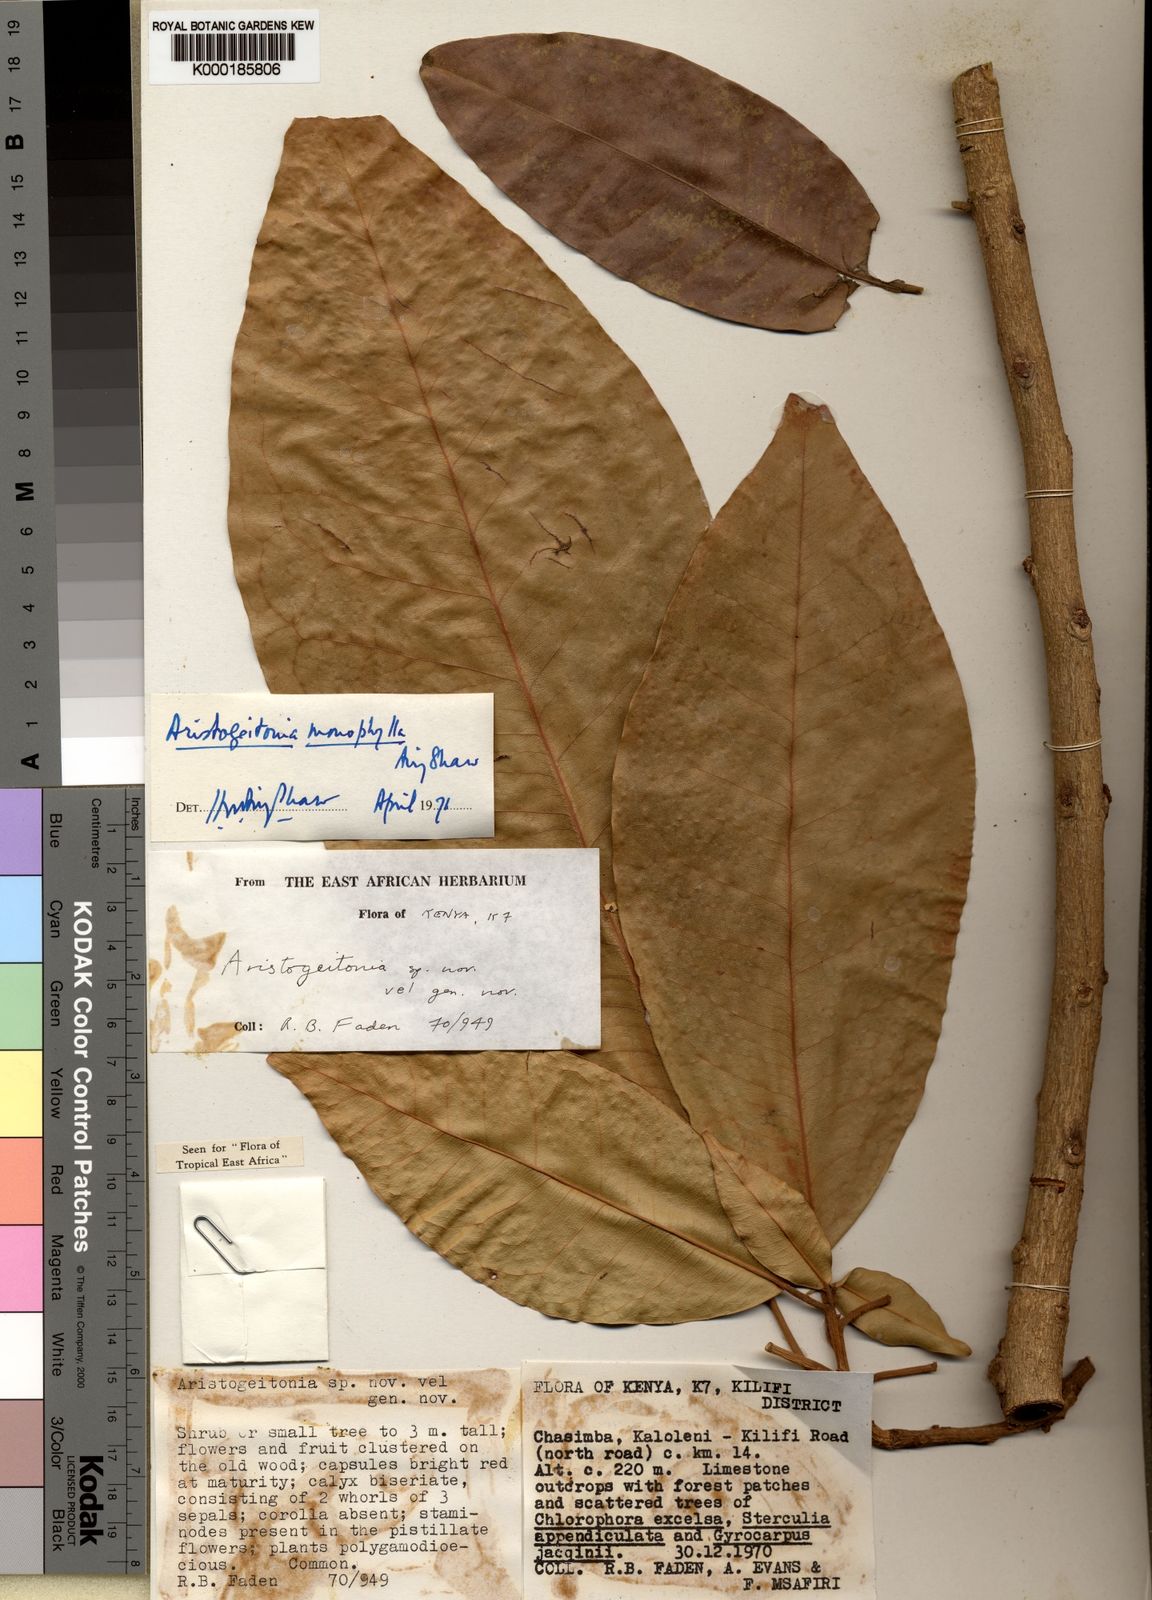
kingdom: Plantae
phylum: Tracheophyta
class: Magnoliopsida
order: Malpighiales
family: Picrodendraceae
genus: Aristogeitonia
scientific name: Aristogeitonia monophylla
